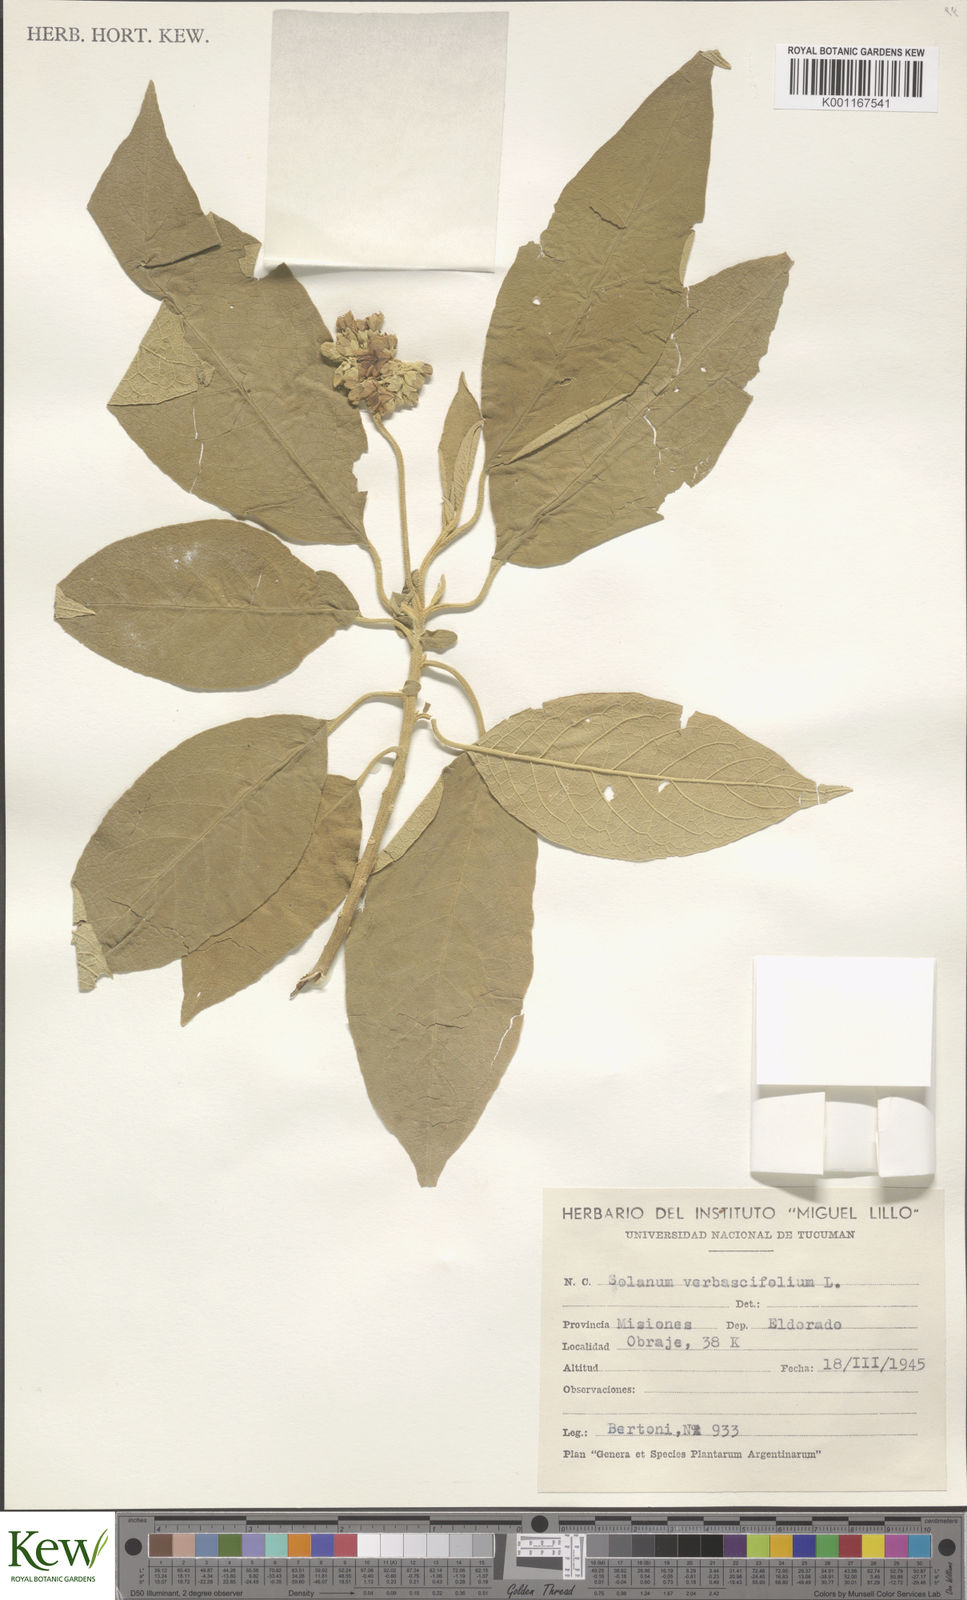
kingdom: Plantae
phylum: Tracheophyta
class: Magnoliopsida
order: Solanales
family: Solanaceae
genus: Solanum
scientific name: Solanum erianthum
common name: Tobacco-tree
